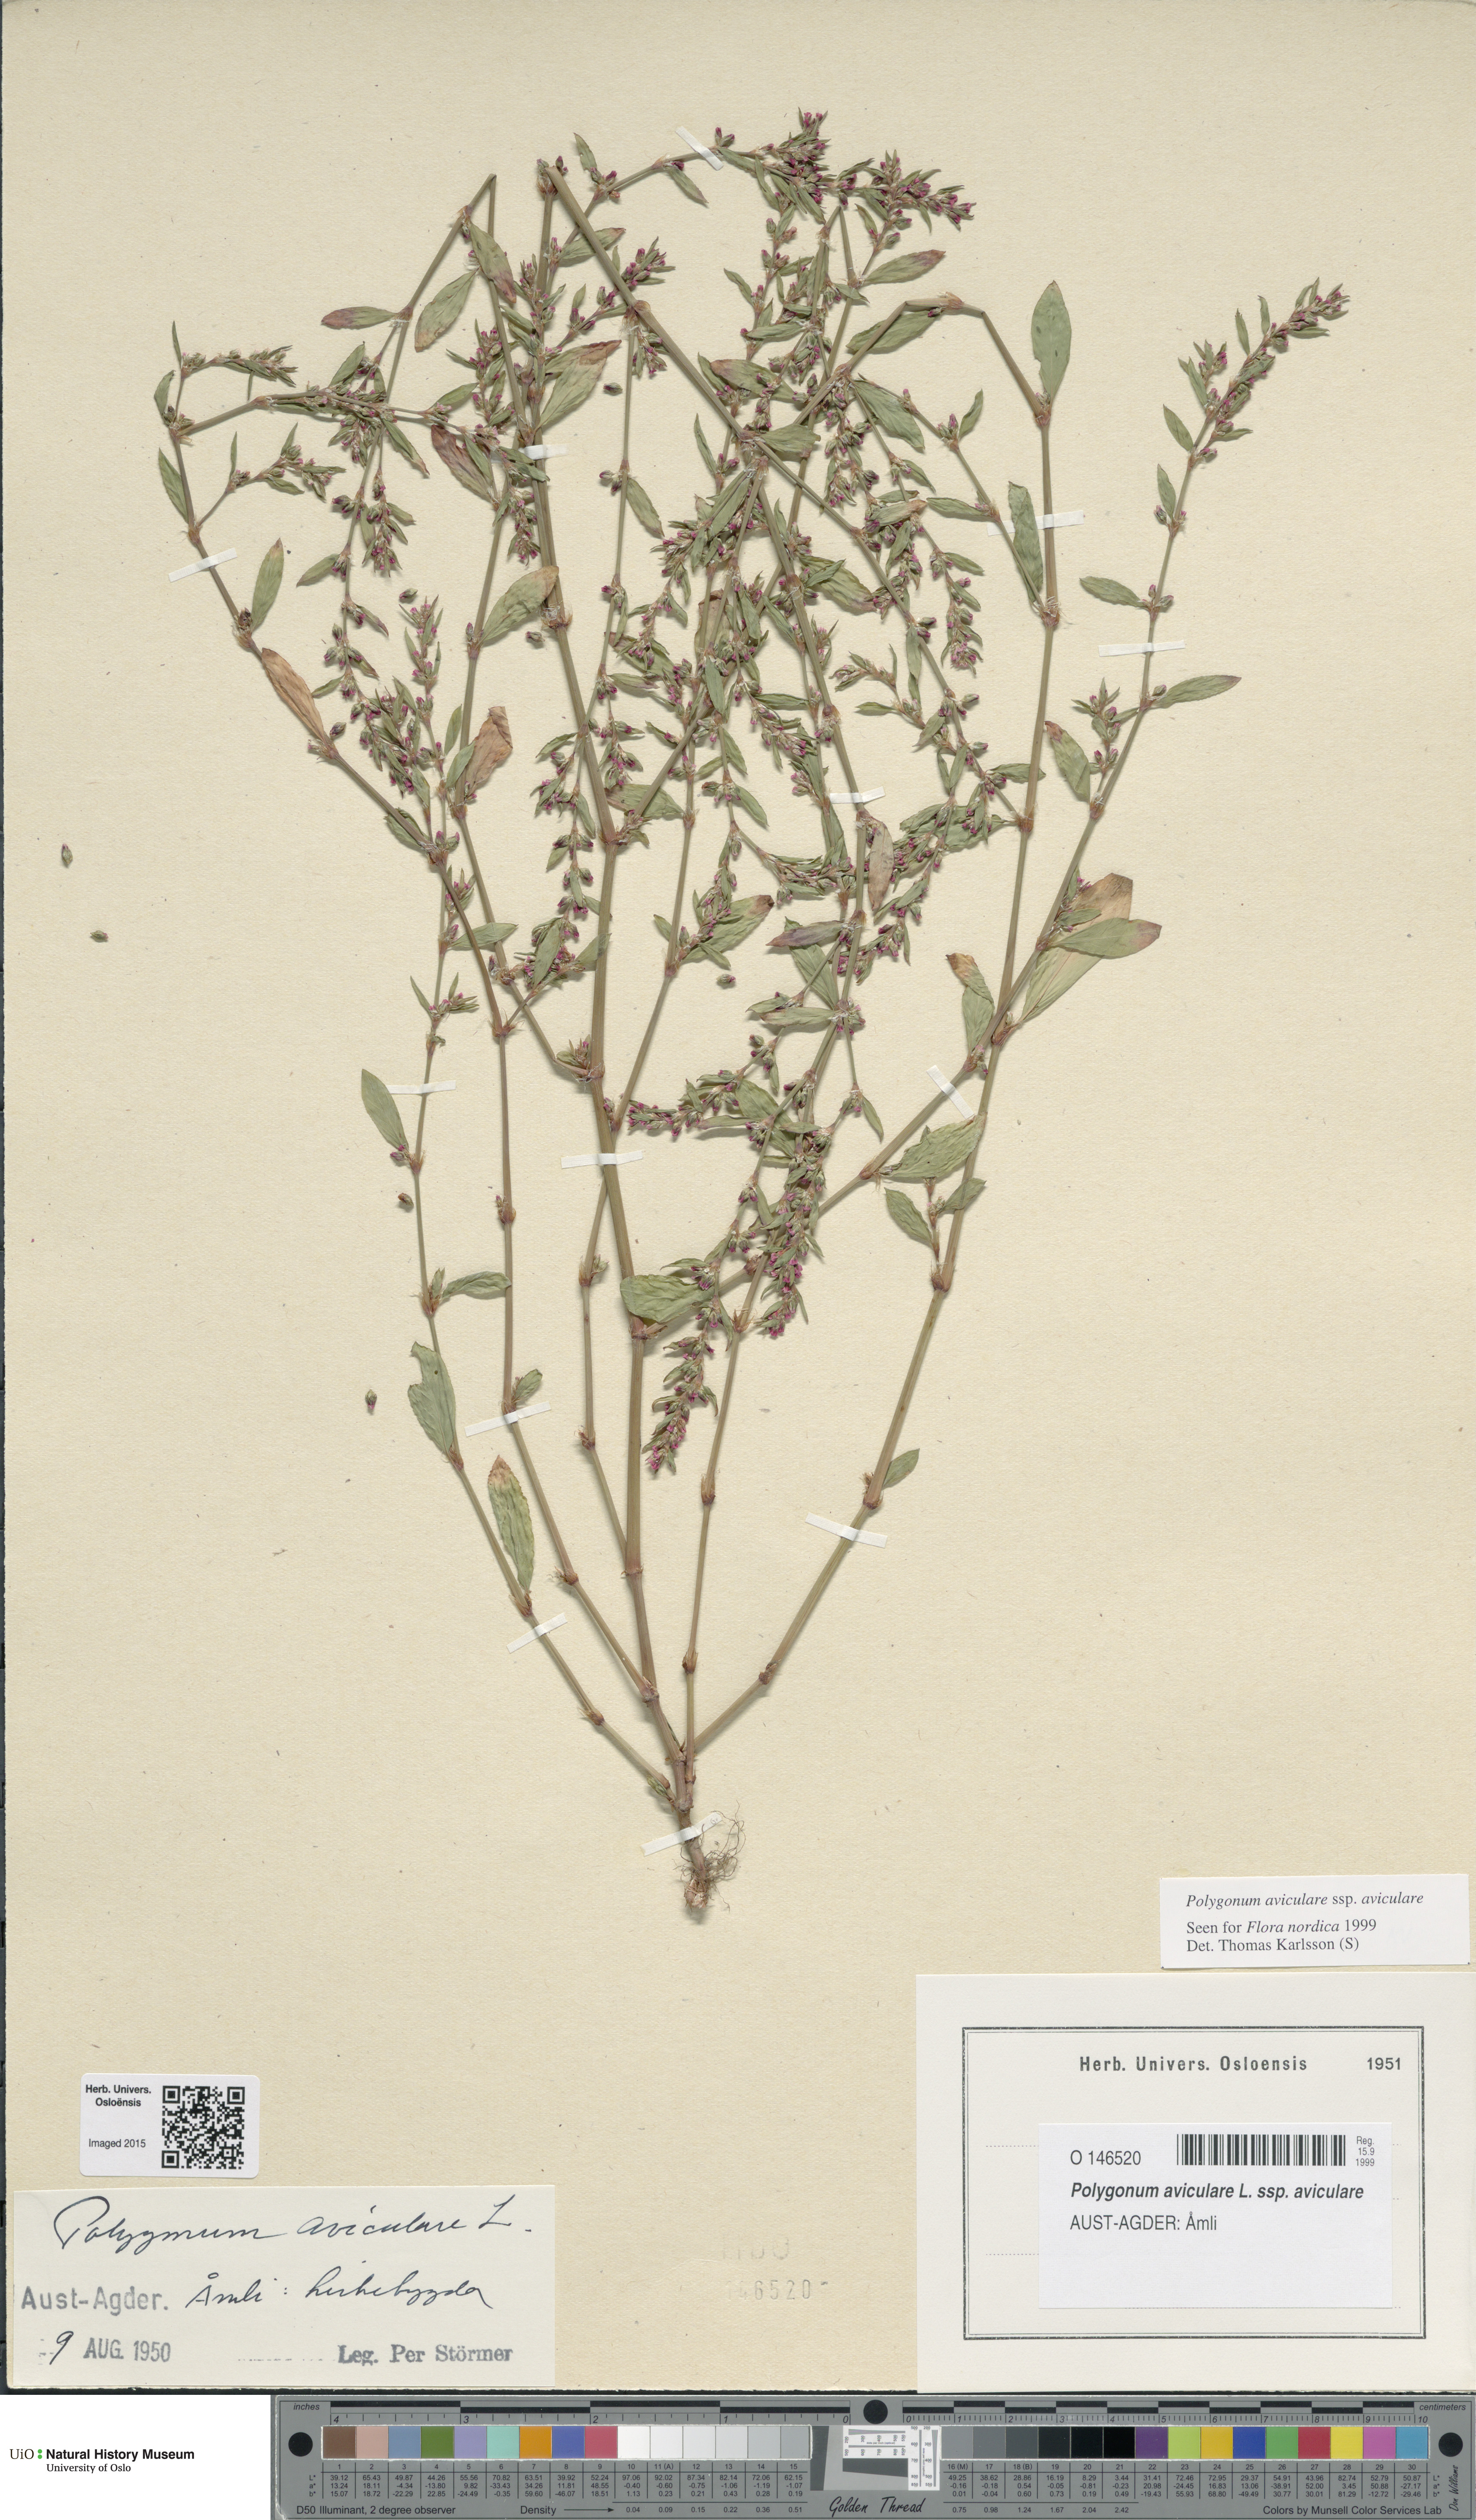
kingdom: Plantae
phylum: Tracheophyta
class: Magnoliopsida
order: Caryophyllales
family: Polygonaceae
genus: Polygonum
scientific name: Polygonum aviculare
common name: Prostrate knotweed
